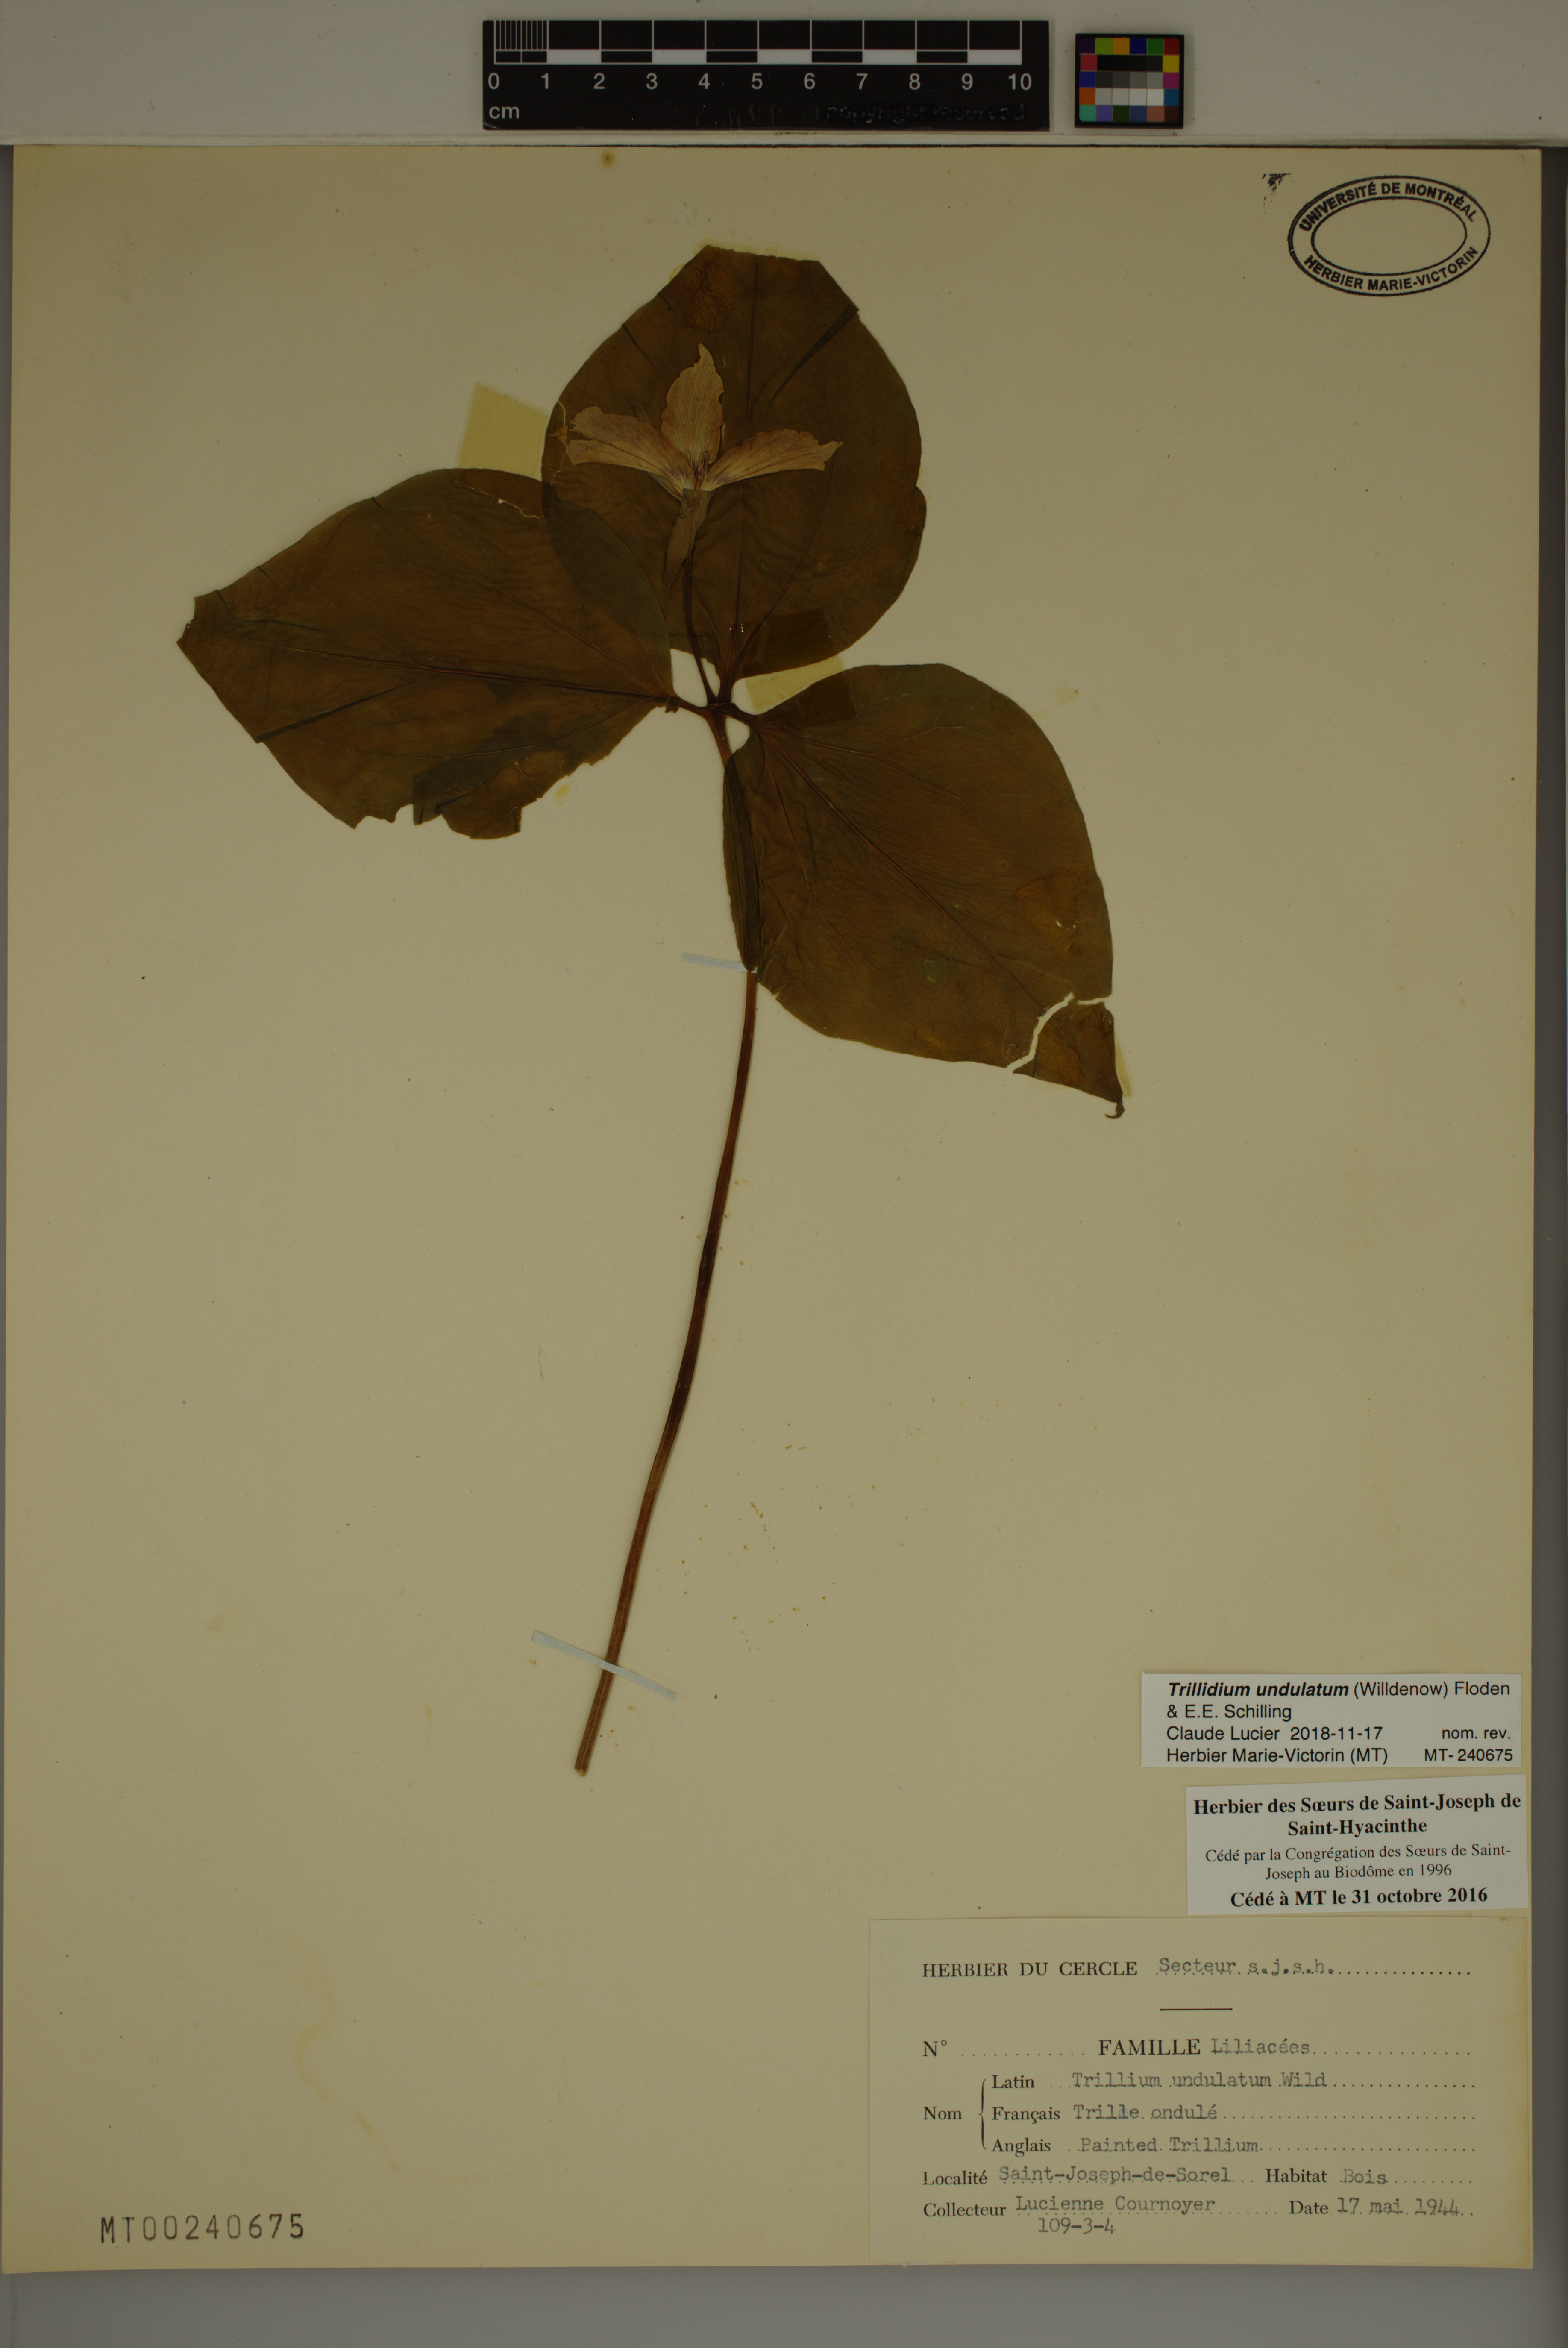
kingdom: Plantae
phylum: Tracheophyta
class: Liliopsida
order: Liliales
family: Melanthiaceae
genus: Trillium
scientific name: Trillium undulatum
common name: Paint trillium
